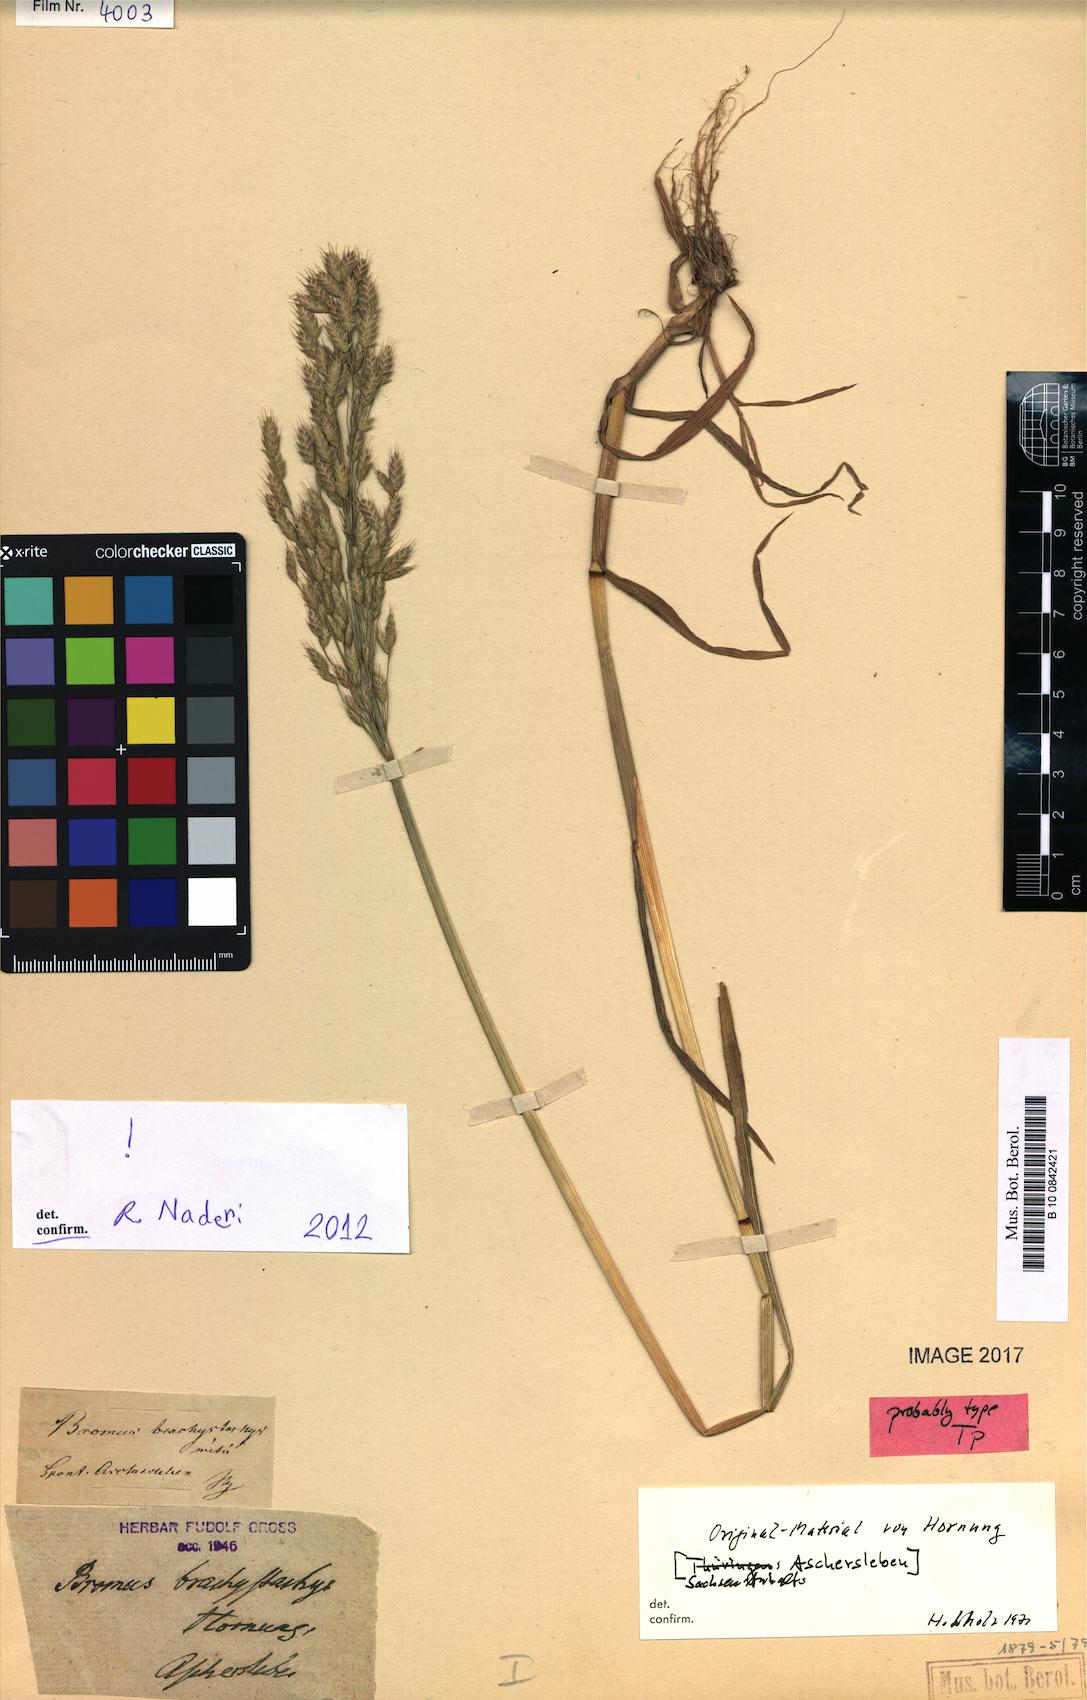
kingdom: Plantae
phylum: Tracheophyta
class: Liliopsida
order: Poales
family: Poaceae
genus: Bromus
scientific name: Bromus brachystachys
